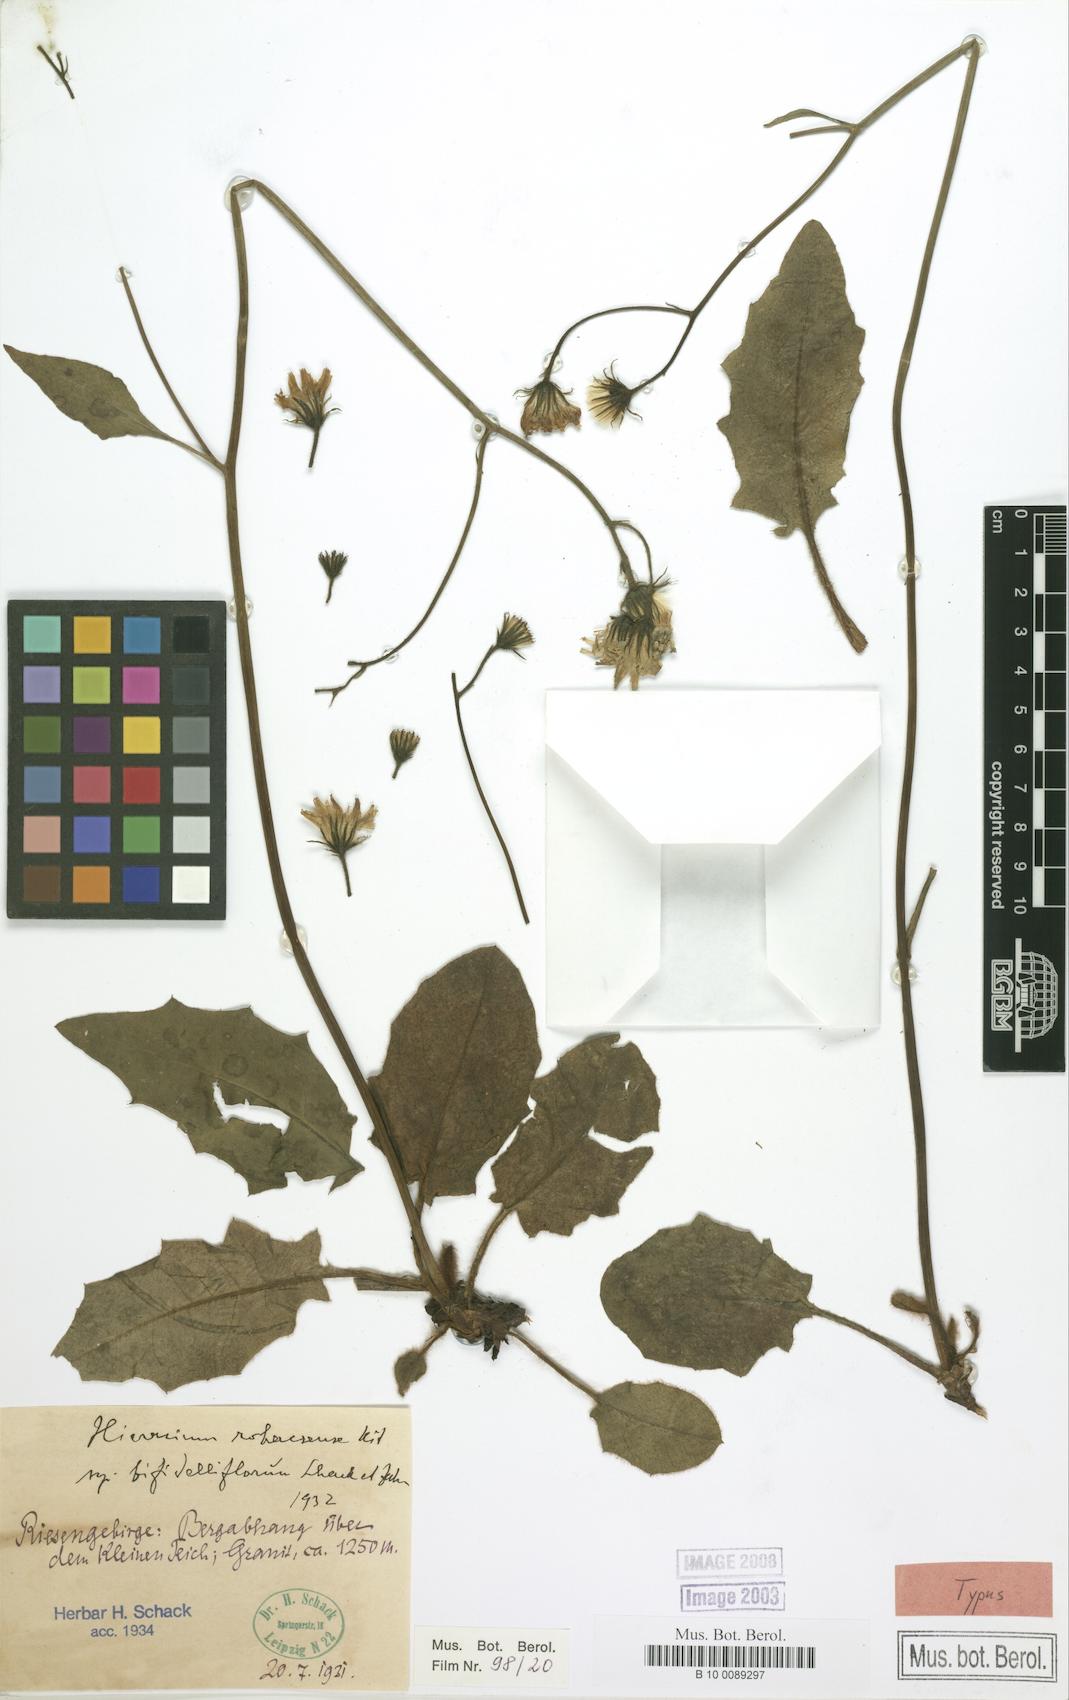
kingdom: Plantae
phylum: Tracheophyta
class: Magnoliopsida
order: Asterales
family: Asteraceae
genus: Hieracium
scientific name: Hieracium rohacsense
